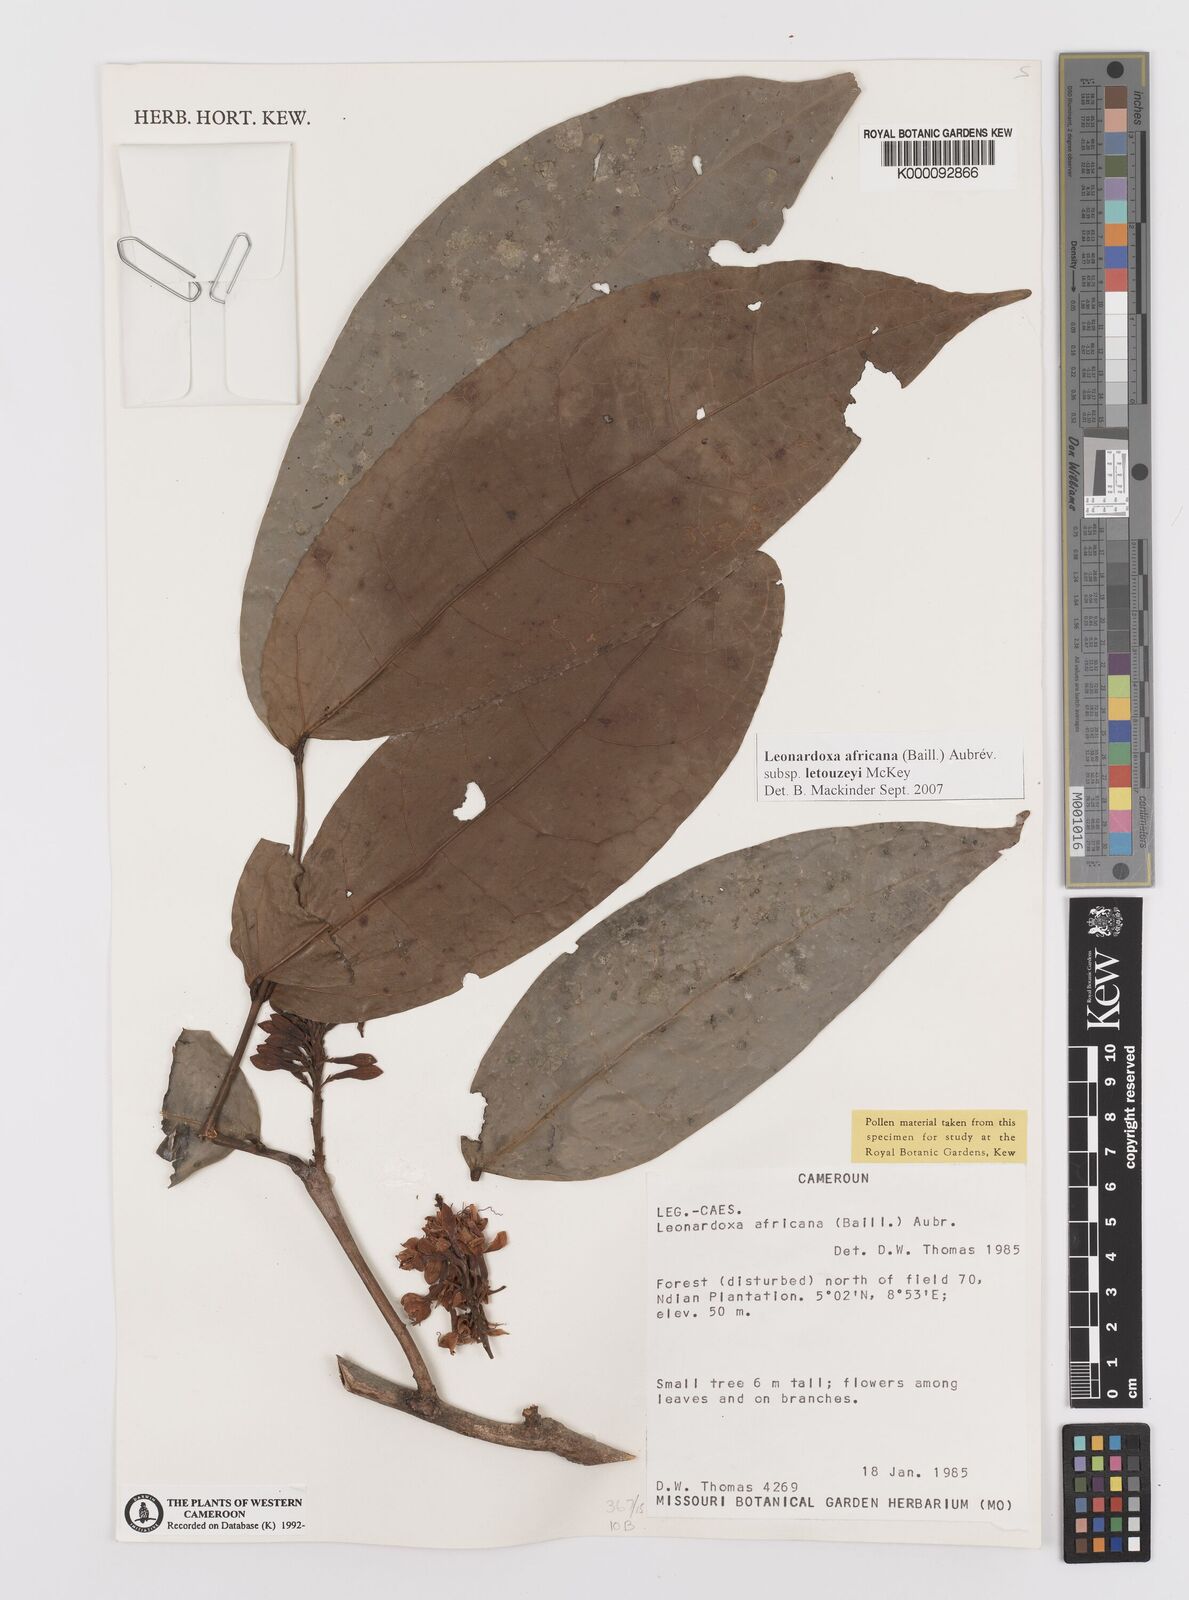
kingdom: Plantae
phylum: Tracheophyta
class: Magnoliopsida
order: Fabales
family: Fabaceae
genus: Leonardoxa
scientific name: Leonardoxa
